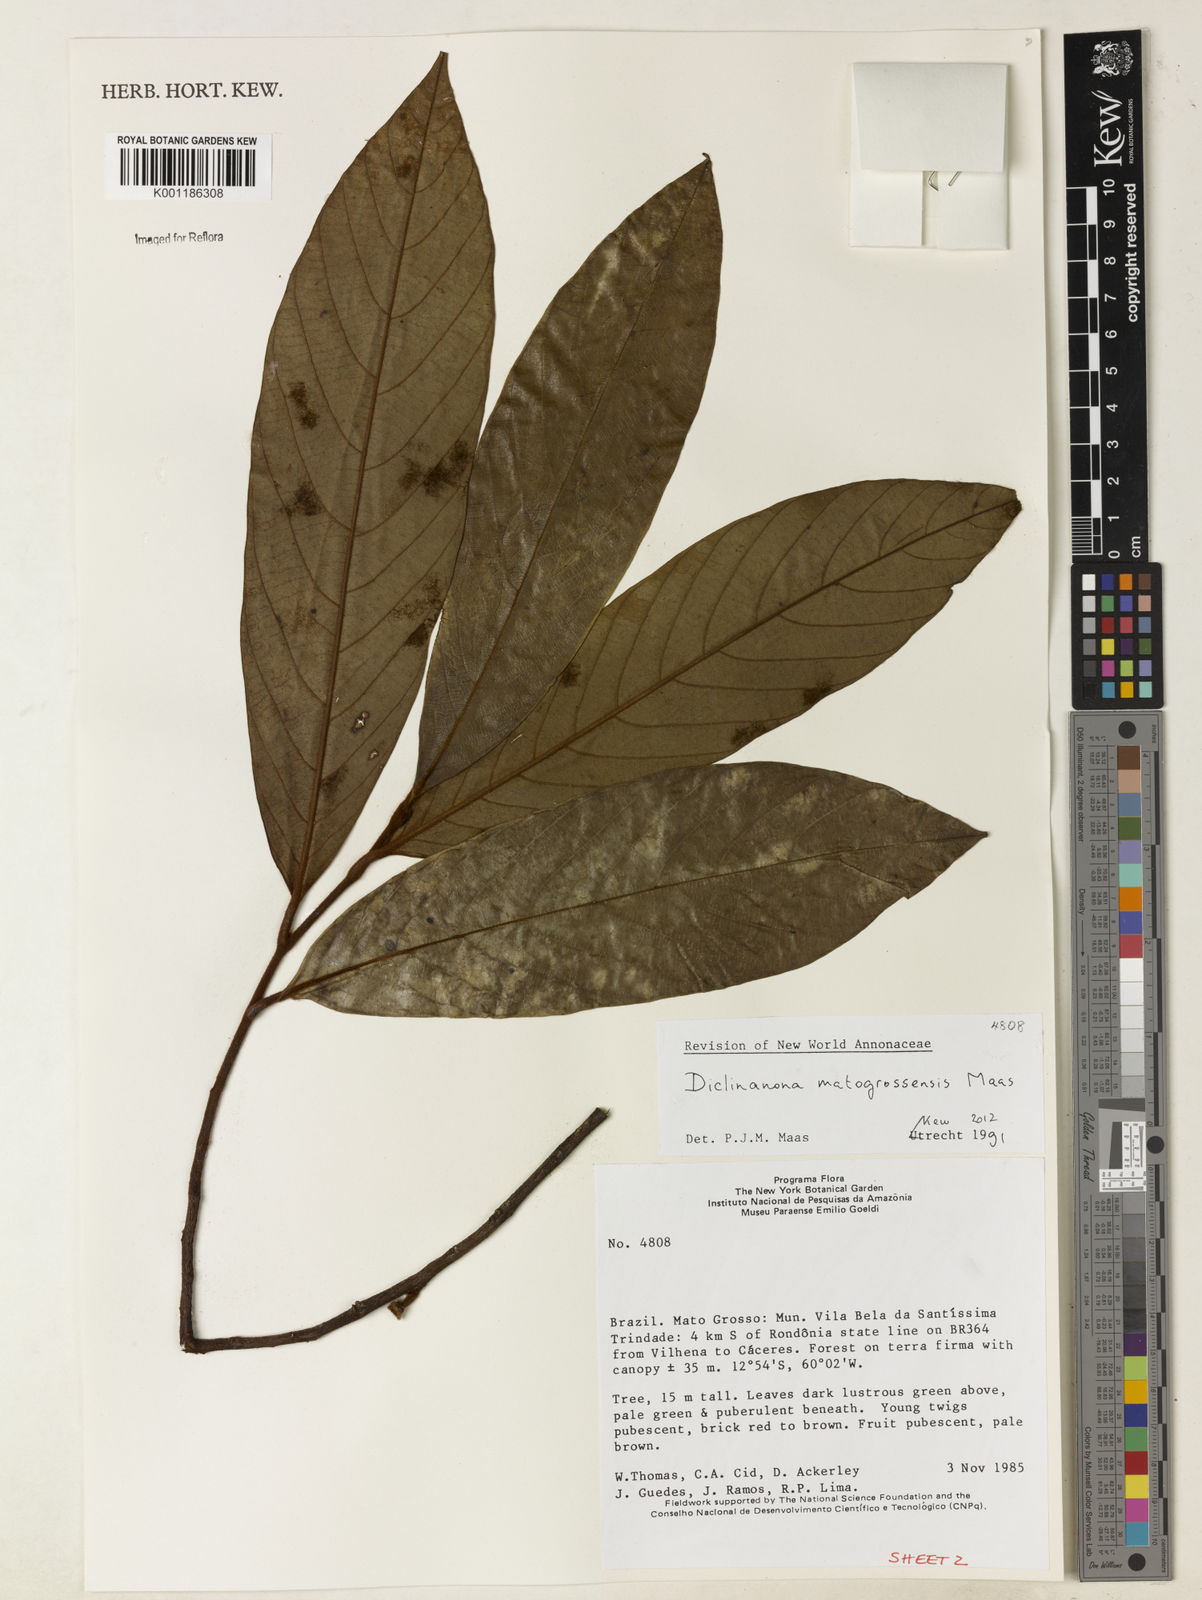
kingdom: Plantae
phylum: Tracheophyta
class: Magnoliopsida
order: Magnoliales
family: Annonaceae
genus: Diclinanona
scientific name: Diclinanona matogrossensis
